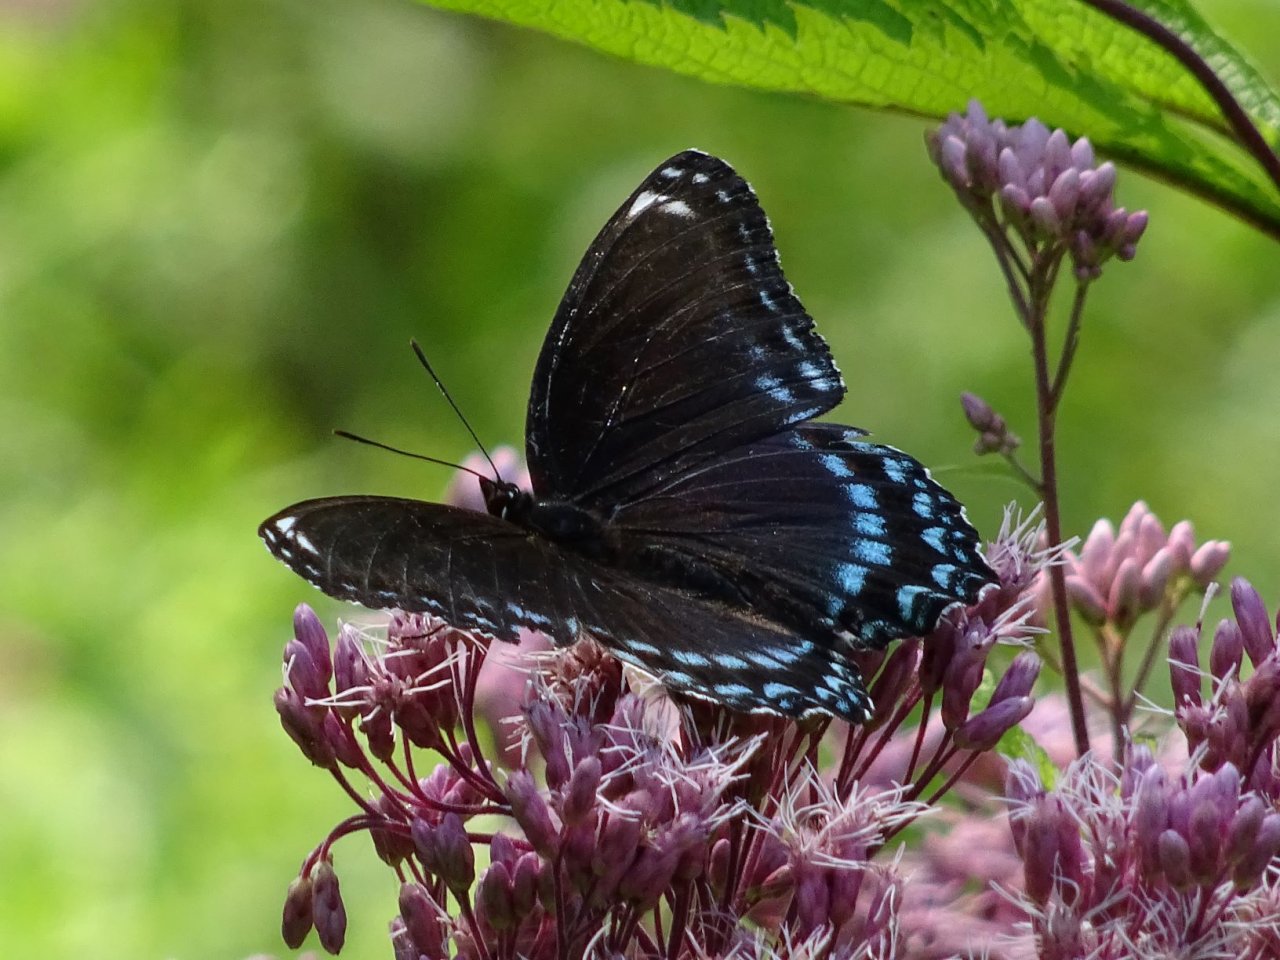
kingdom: Animalia
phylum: Arthropoda
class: Insecta
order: Lepidoptera
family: Nymphalidae
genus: Limenitis
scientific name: Limenitis astyanax
